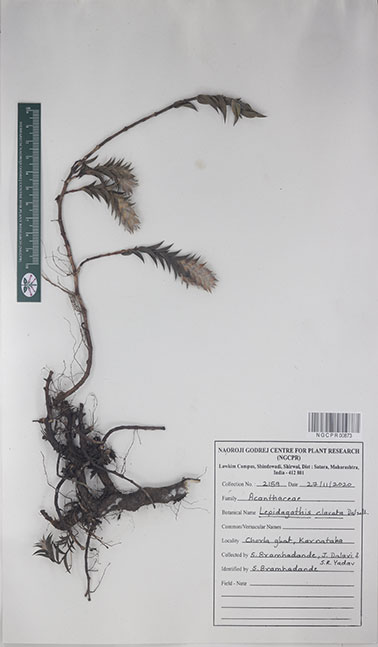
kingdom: Plantae
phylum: Tracheophyta
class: Magnoliopsida
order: Lamiales
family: Acanthaceae
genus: Lepidagathis
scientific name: Lepidagathis clavata
